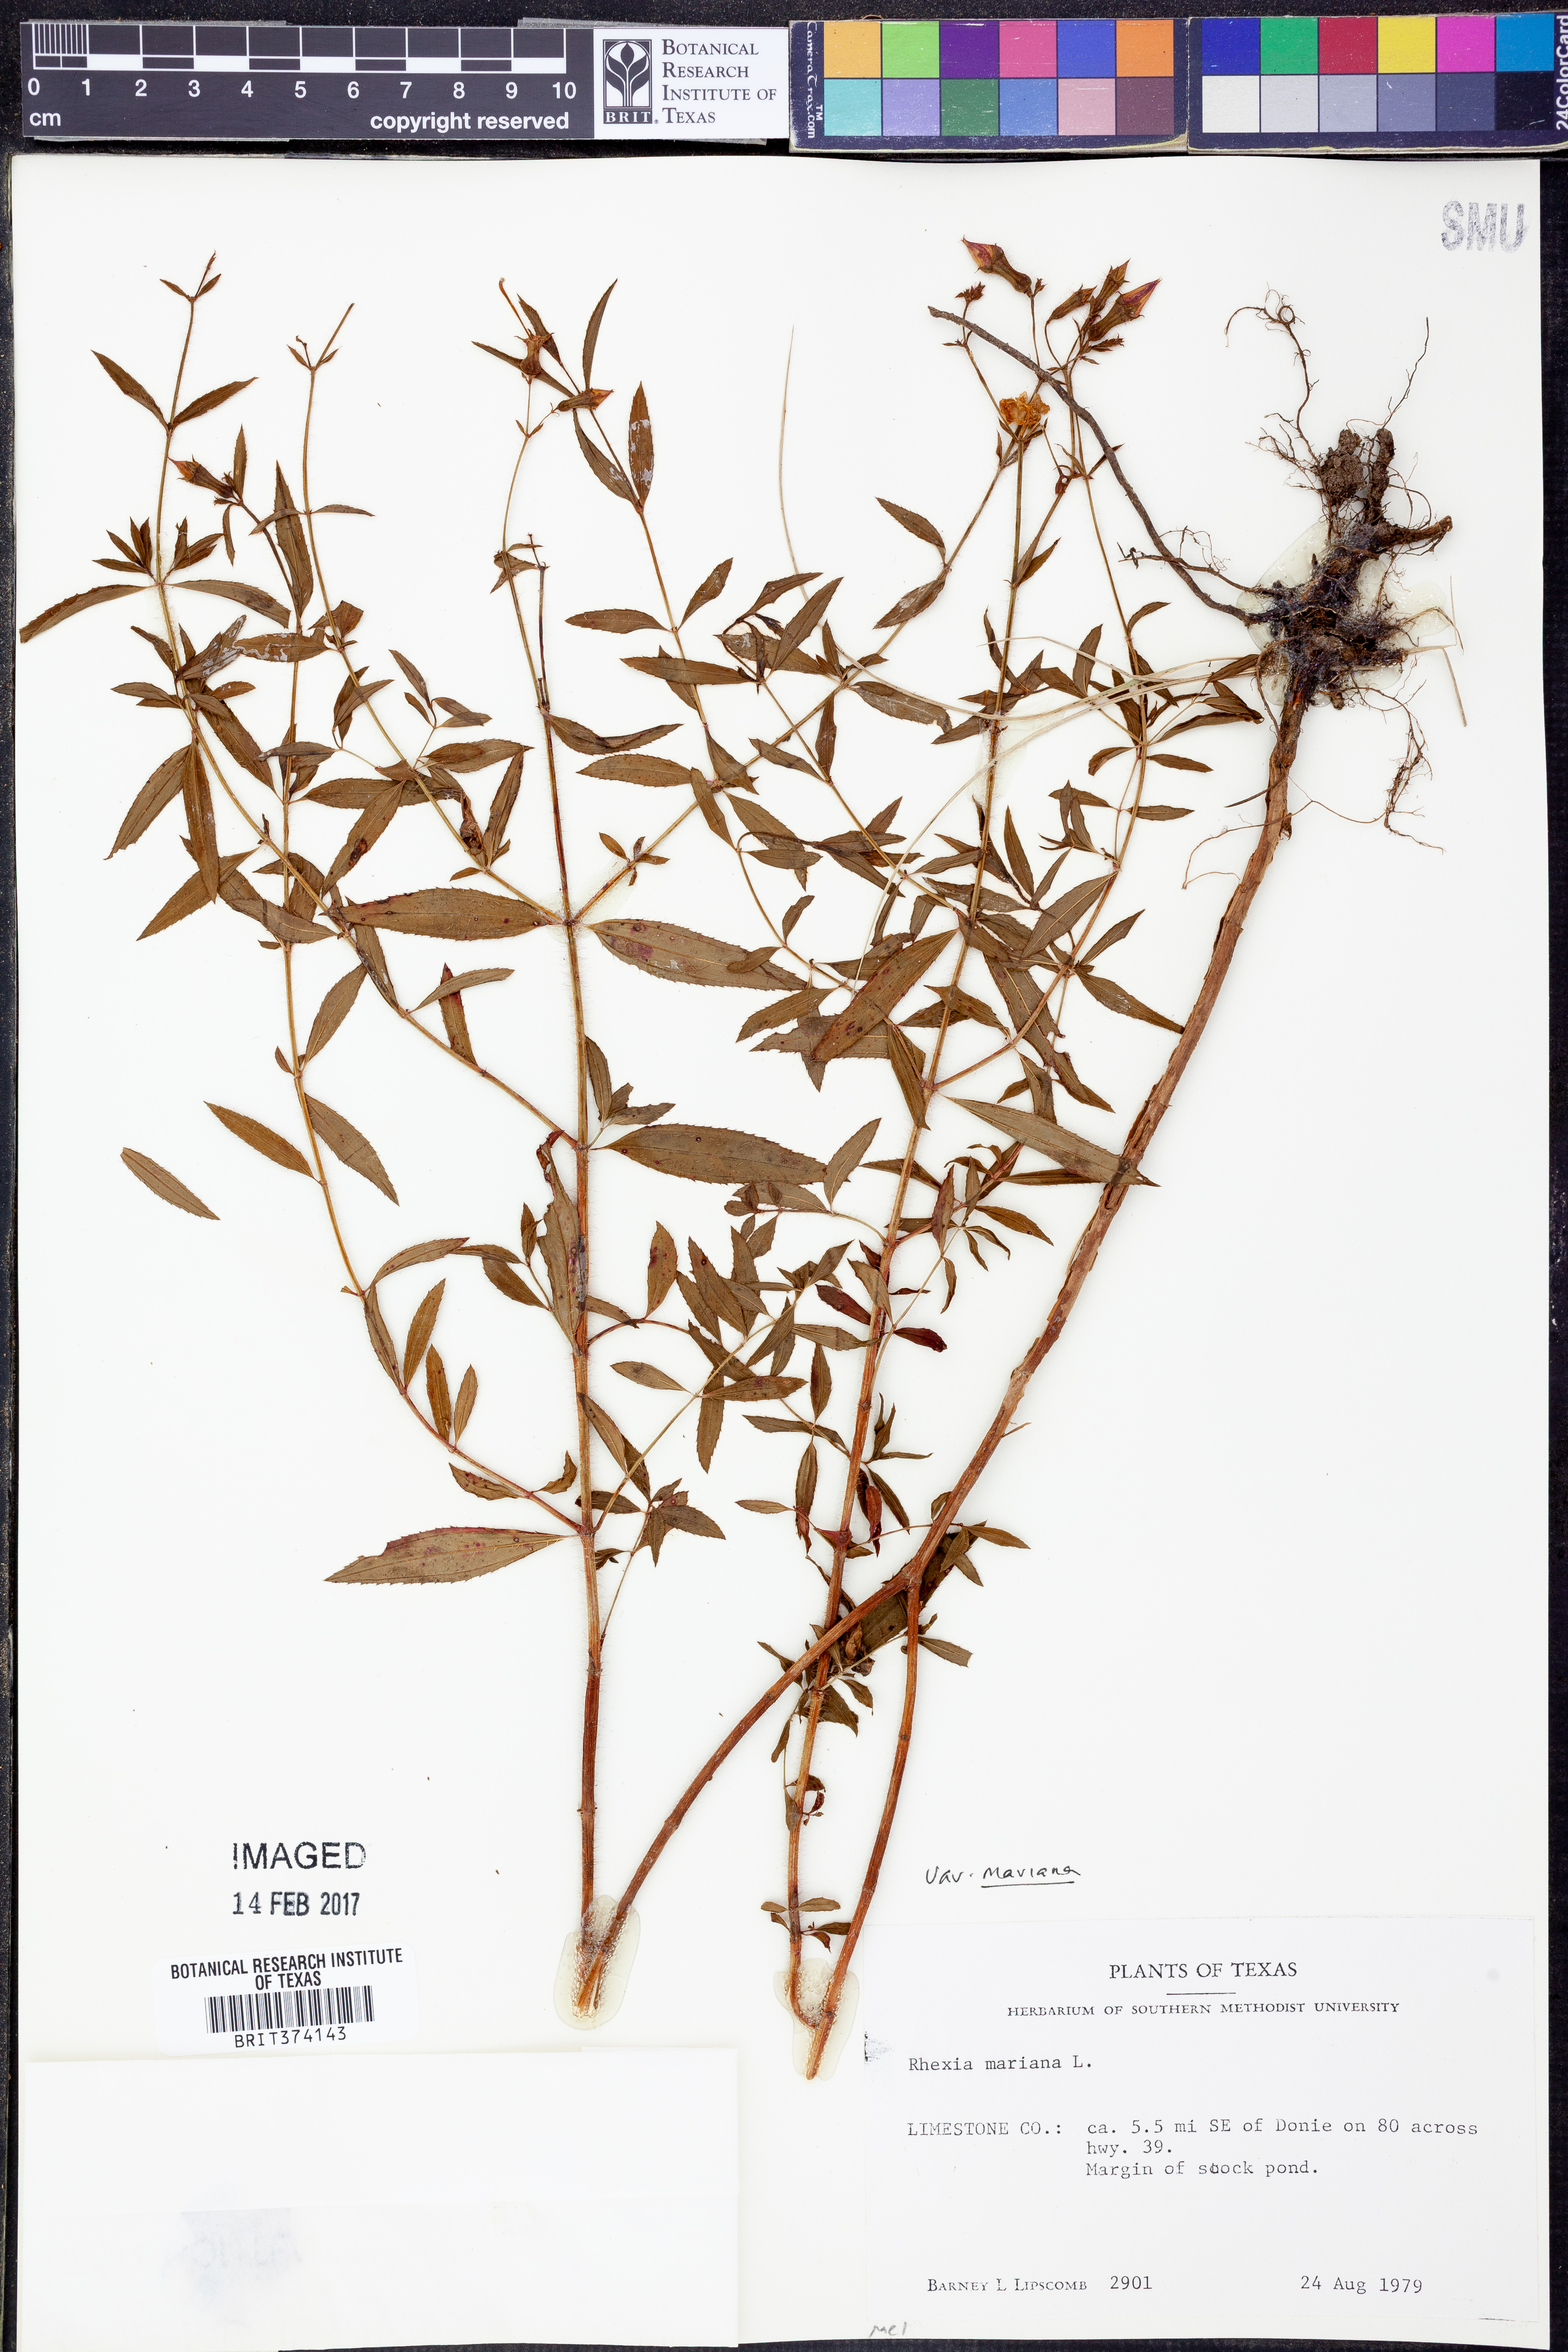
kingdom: Plantae
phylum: Tracheophyta
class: Magnoliopsida
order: Myrtales
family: Melastomataceae
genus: Rhexia
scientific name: Rhexia mariana
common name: Dull meadow-pitcher
